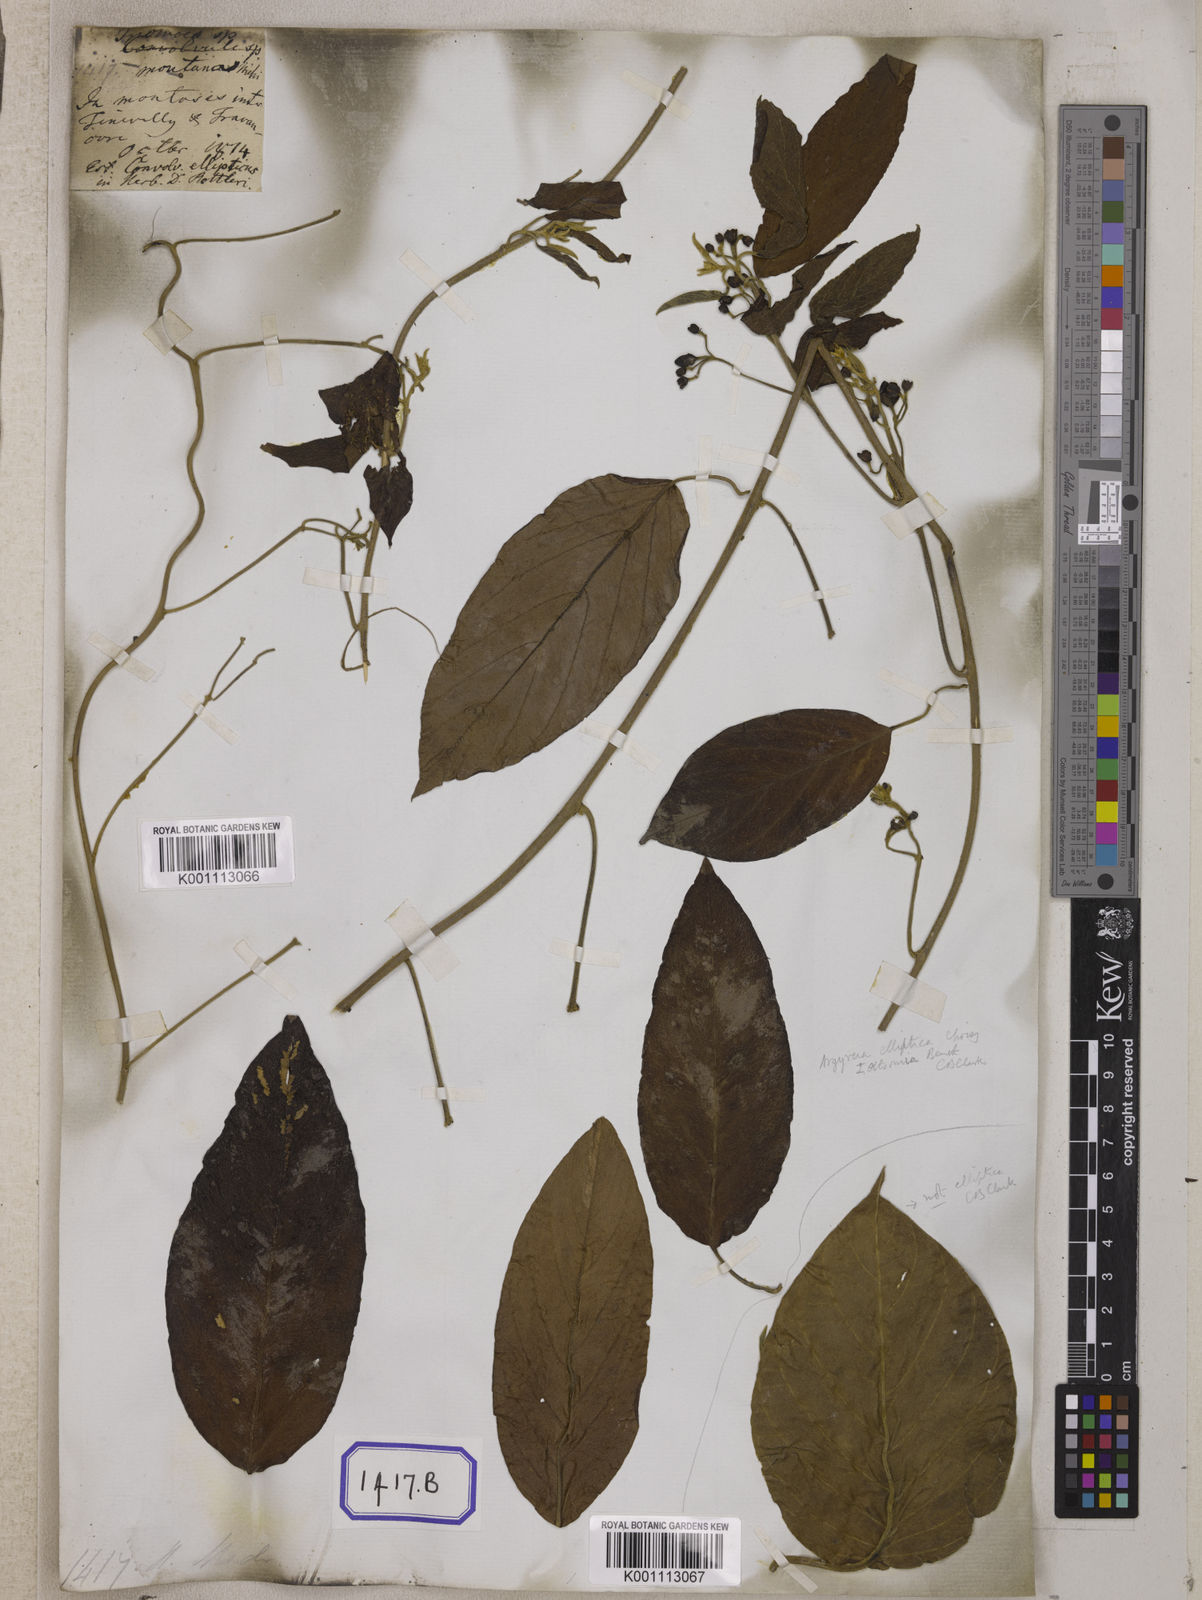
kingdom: Plantae
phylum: Tracheophyta
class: Magnoliopsida
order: Solanales
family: Convolvulaceae
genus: Convolvulus
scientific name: Convolvulus
